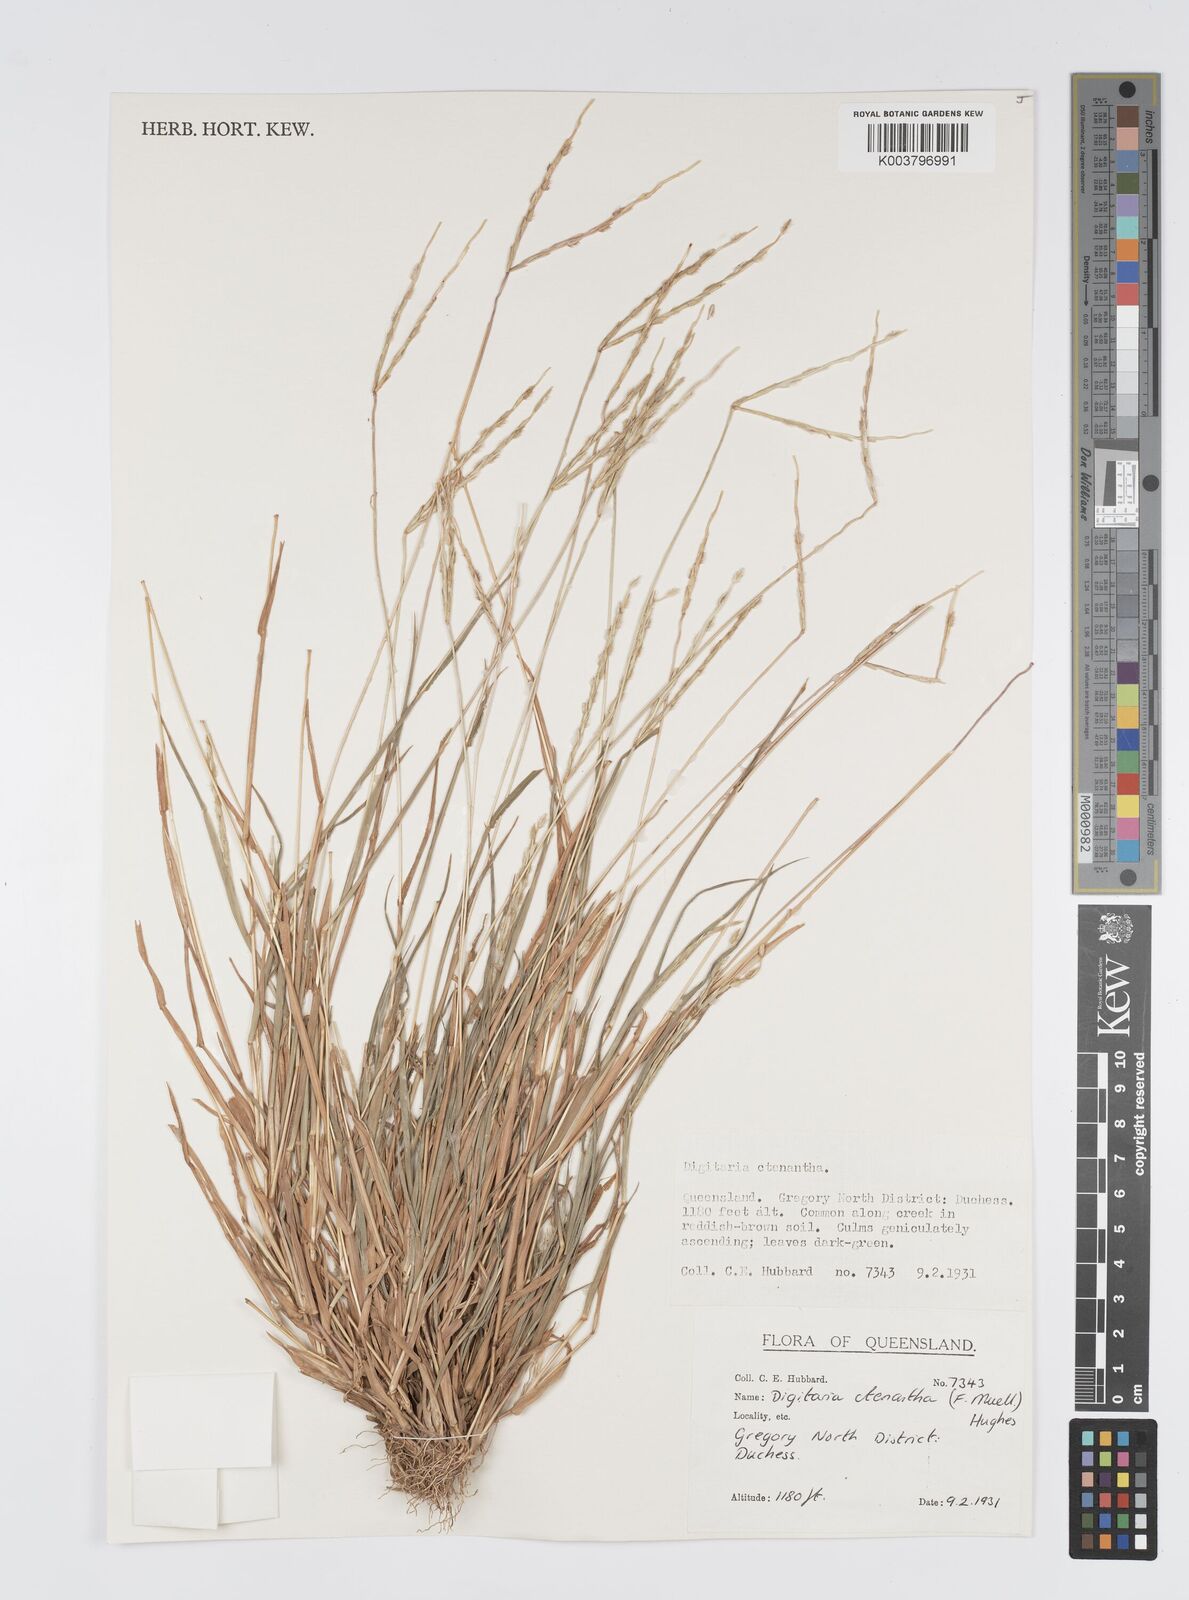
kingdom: Plantae
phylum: Tracheophyta
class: Liliopsida
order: Poales
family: Poaceae
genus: Digitaria
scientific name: Digitaria ctenantha
